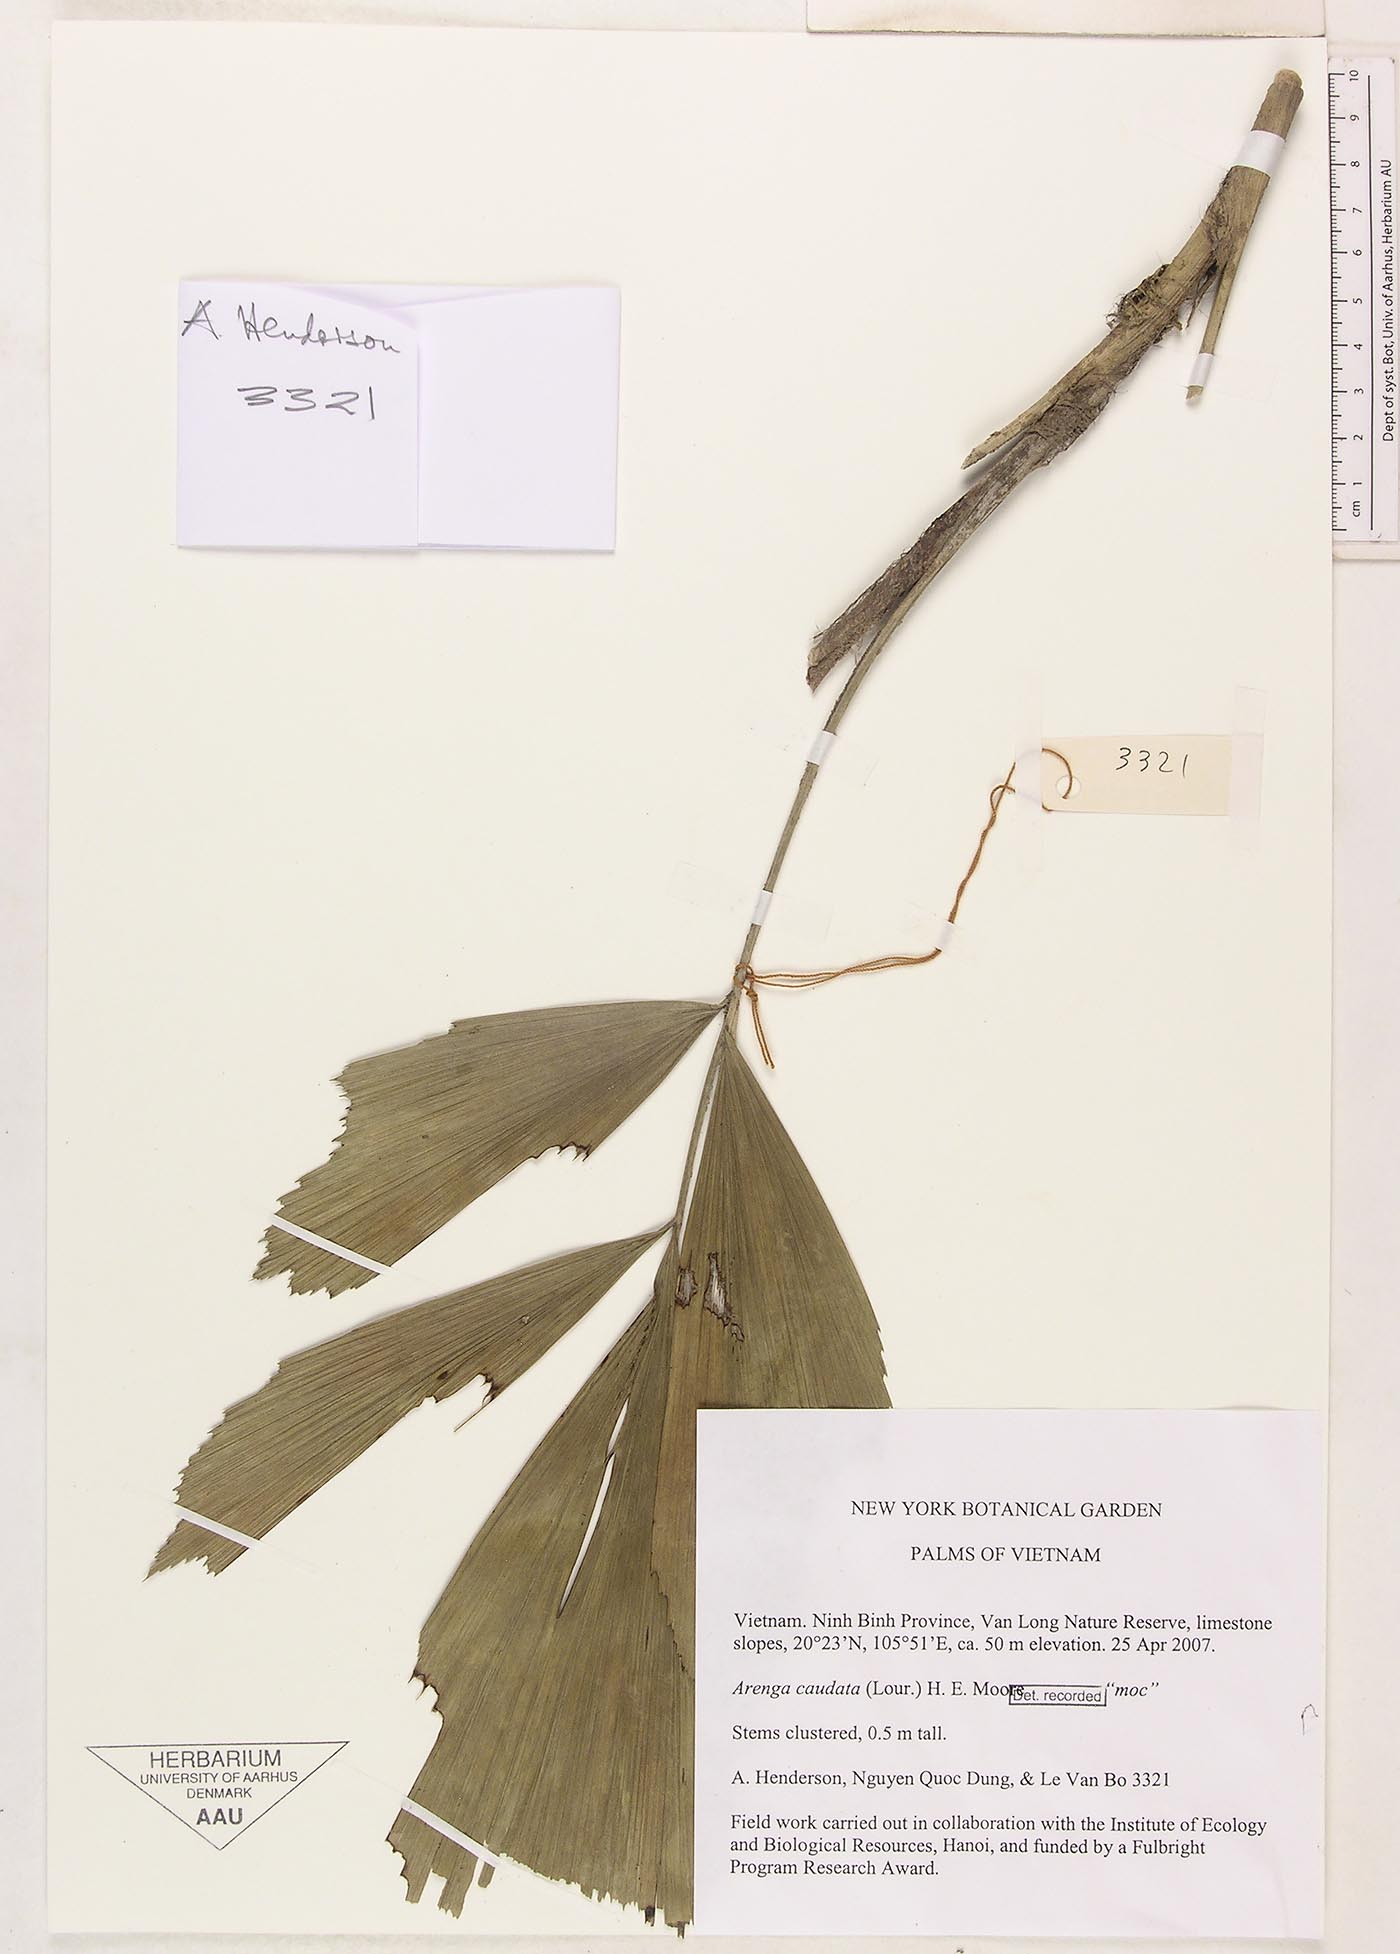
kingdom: Plantae
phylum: Tracheophyta
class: Liliopsida
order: Arecales
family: Arecaceae
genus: Arenga
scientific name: Arenga caudata
